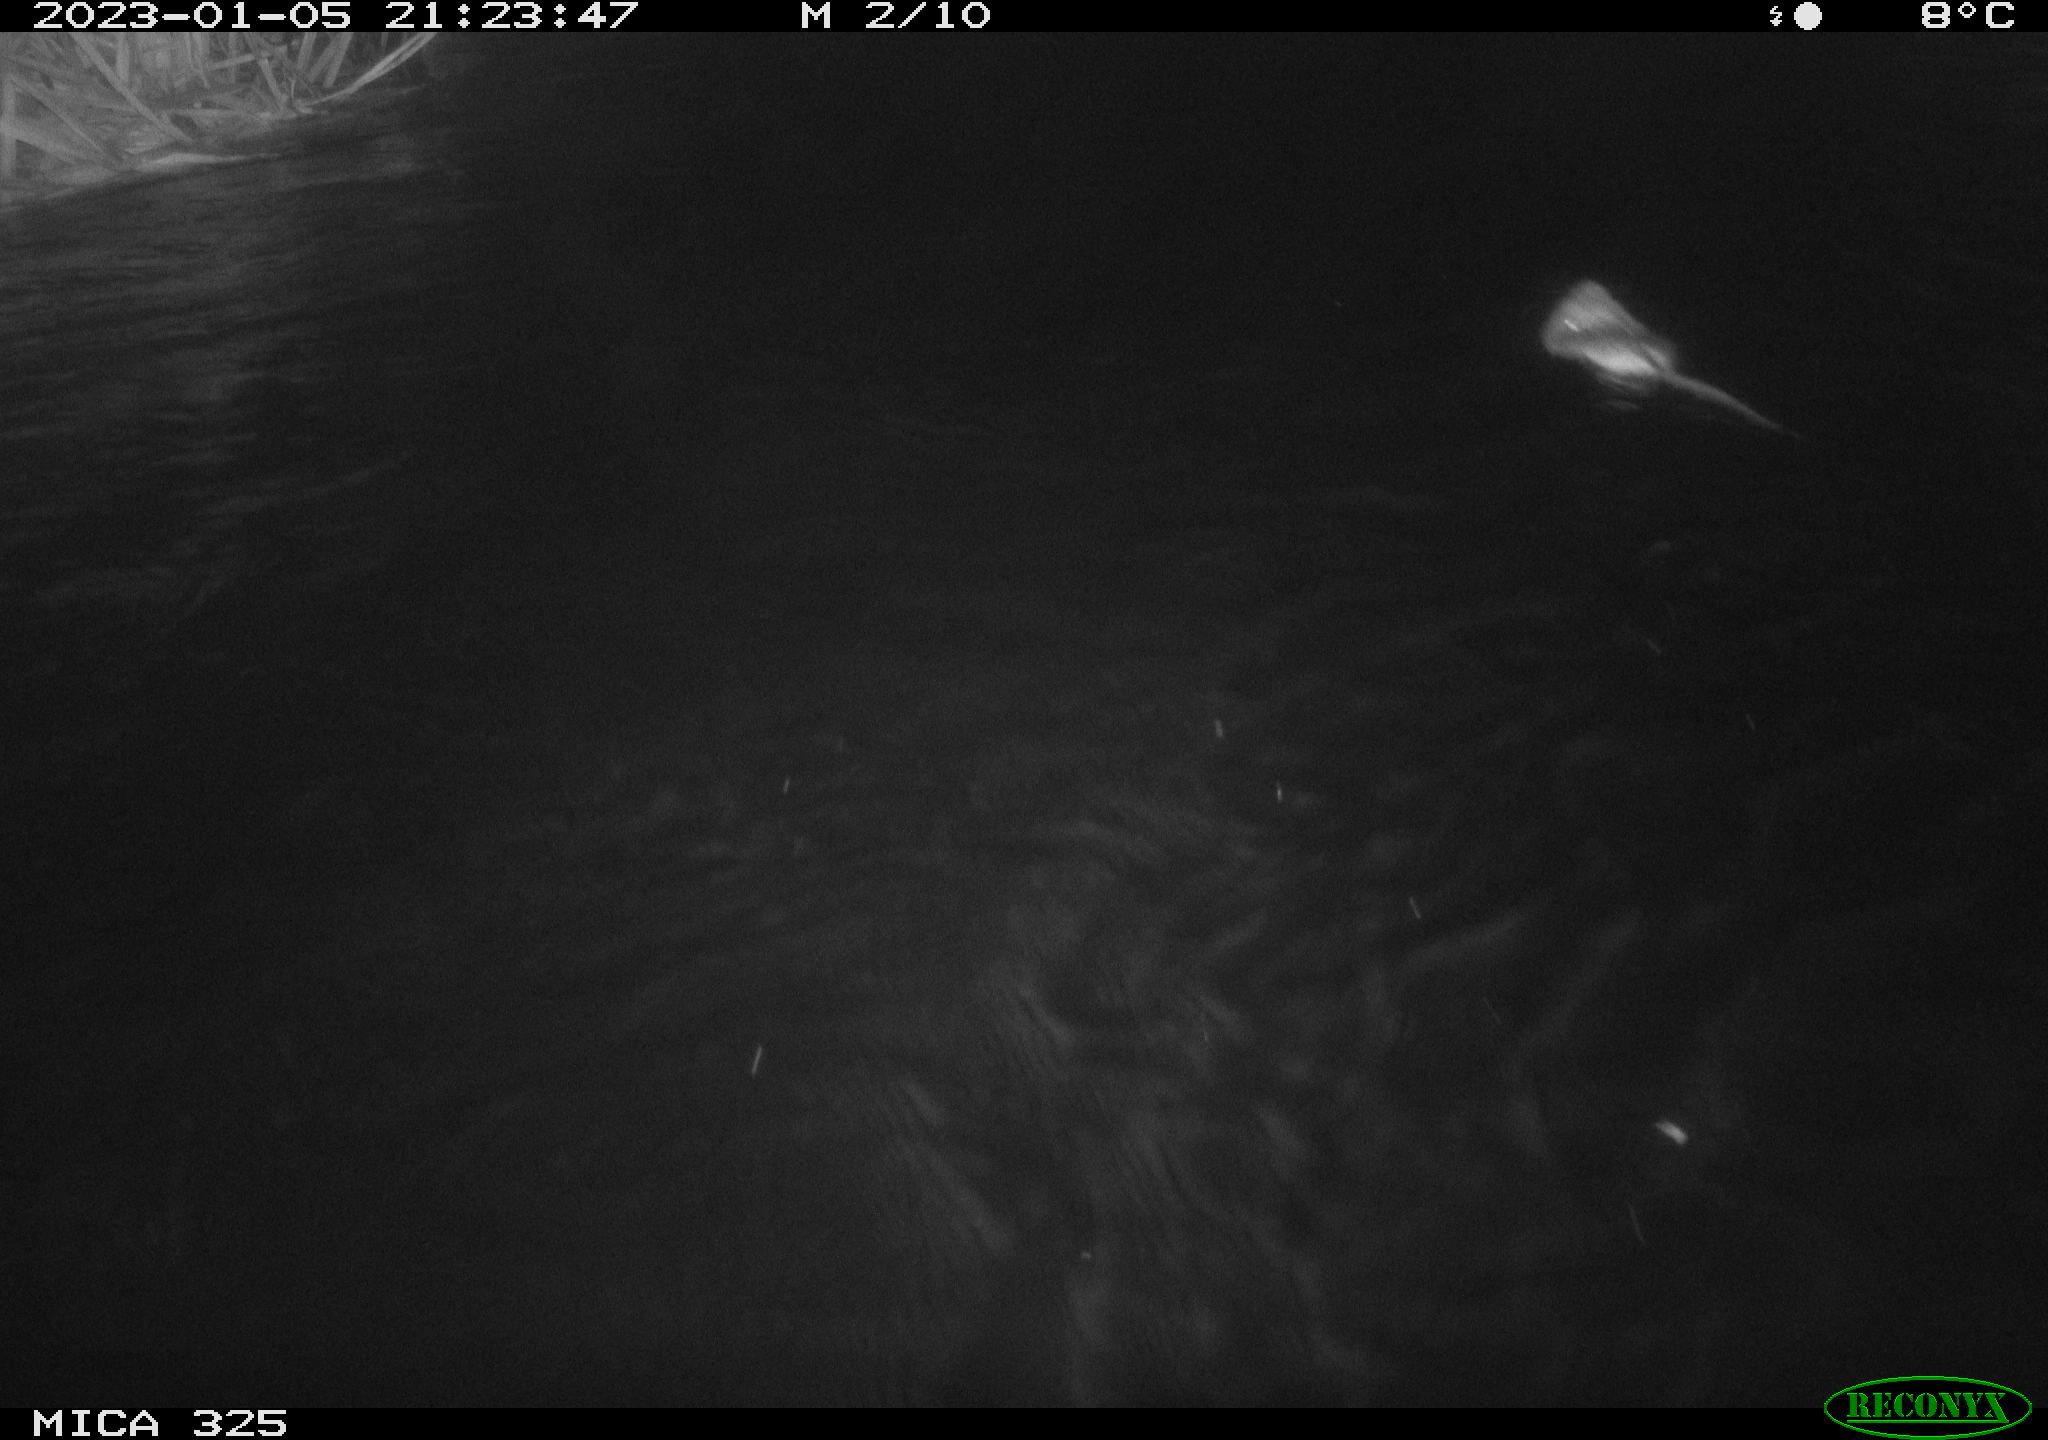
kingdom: Animalia
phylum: Chordata
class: Mammalia
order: Rodentia
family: Cricetidae
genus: Ondatra
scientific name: Ondatra zibethicus
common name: Muskrat
